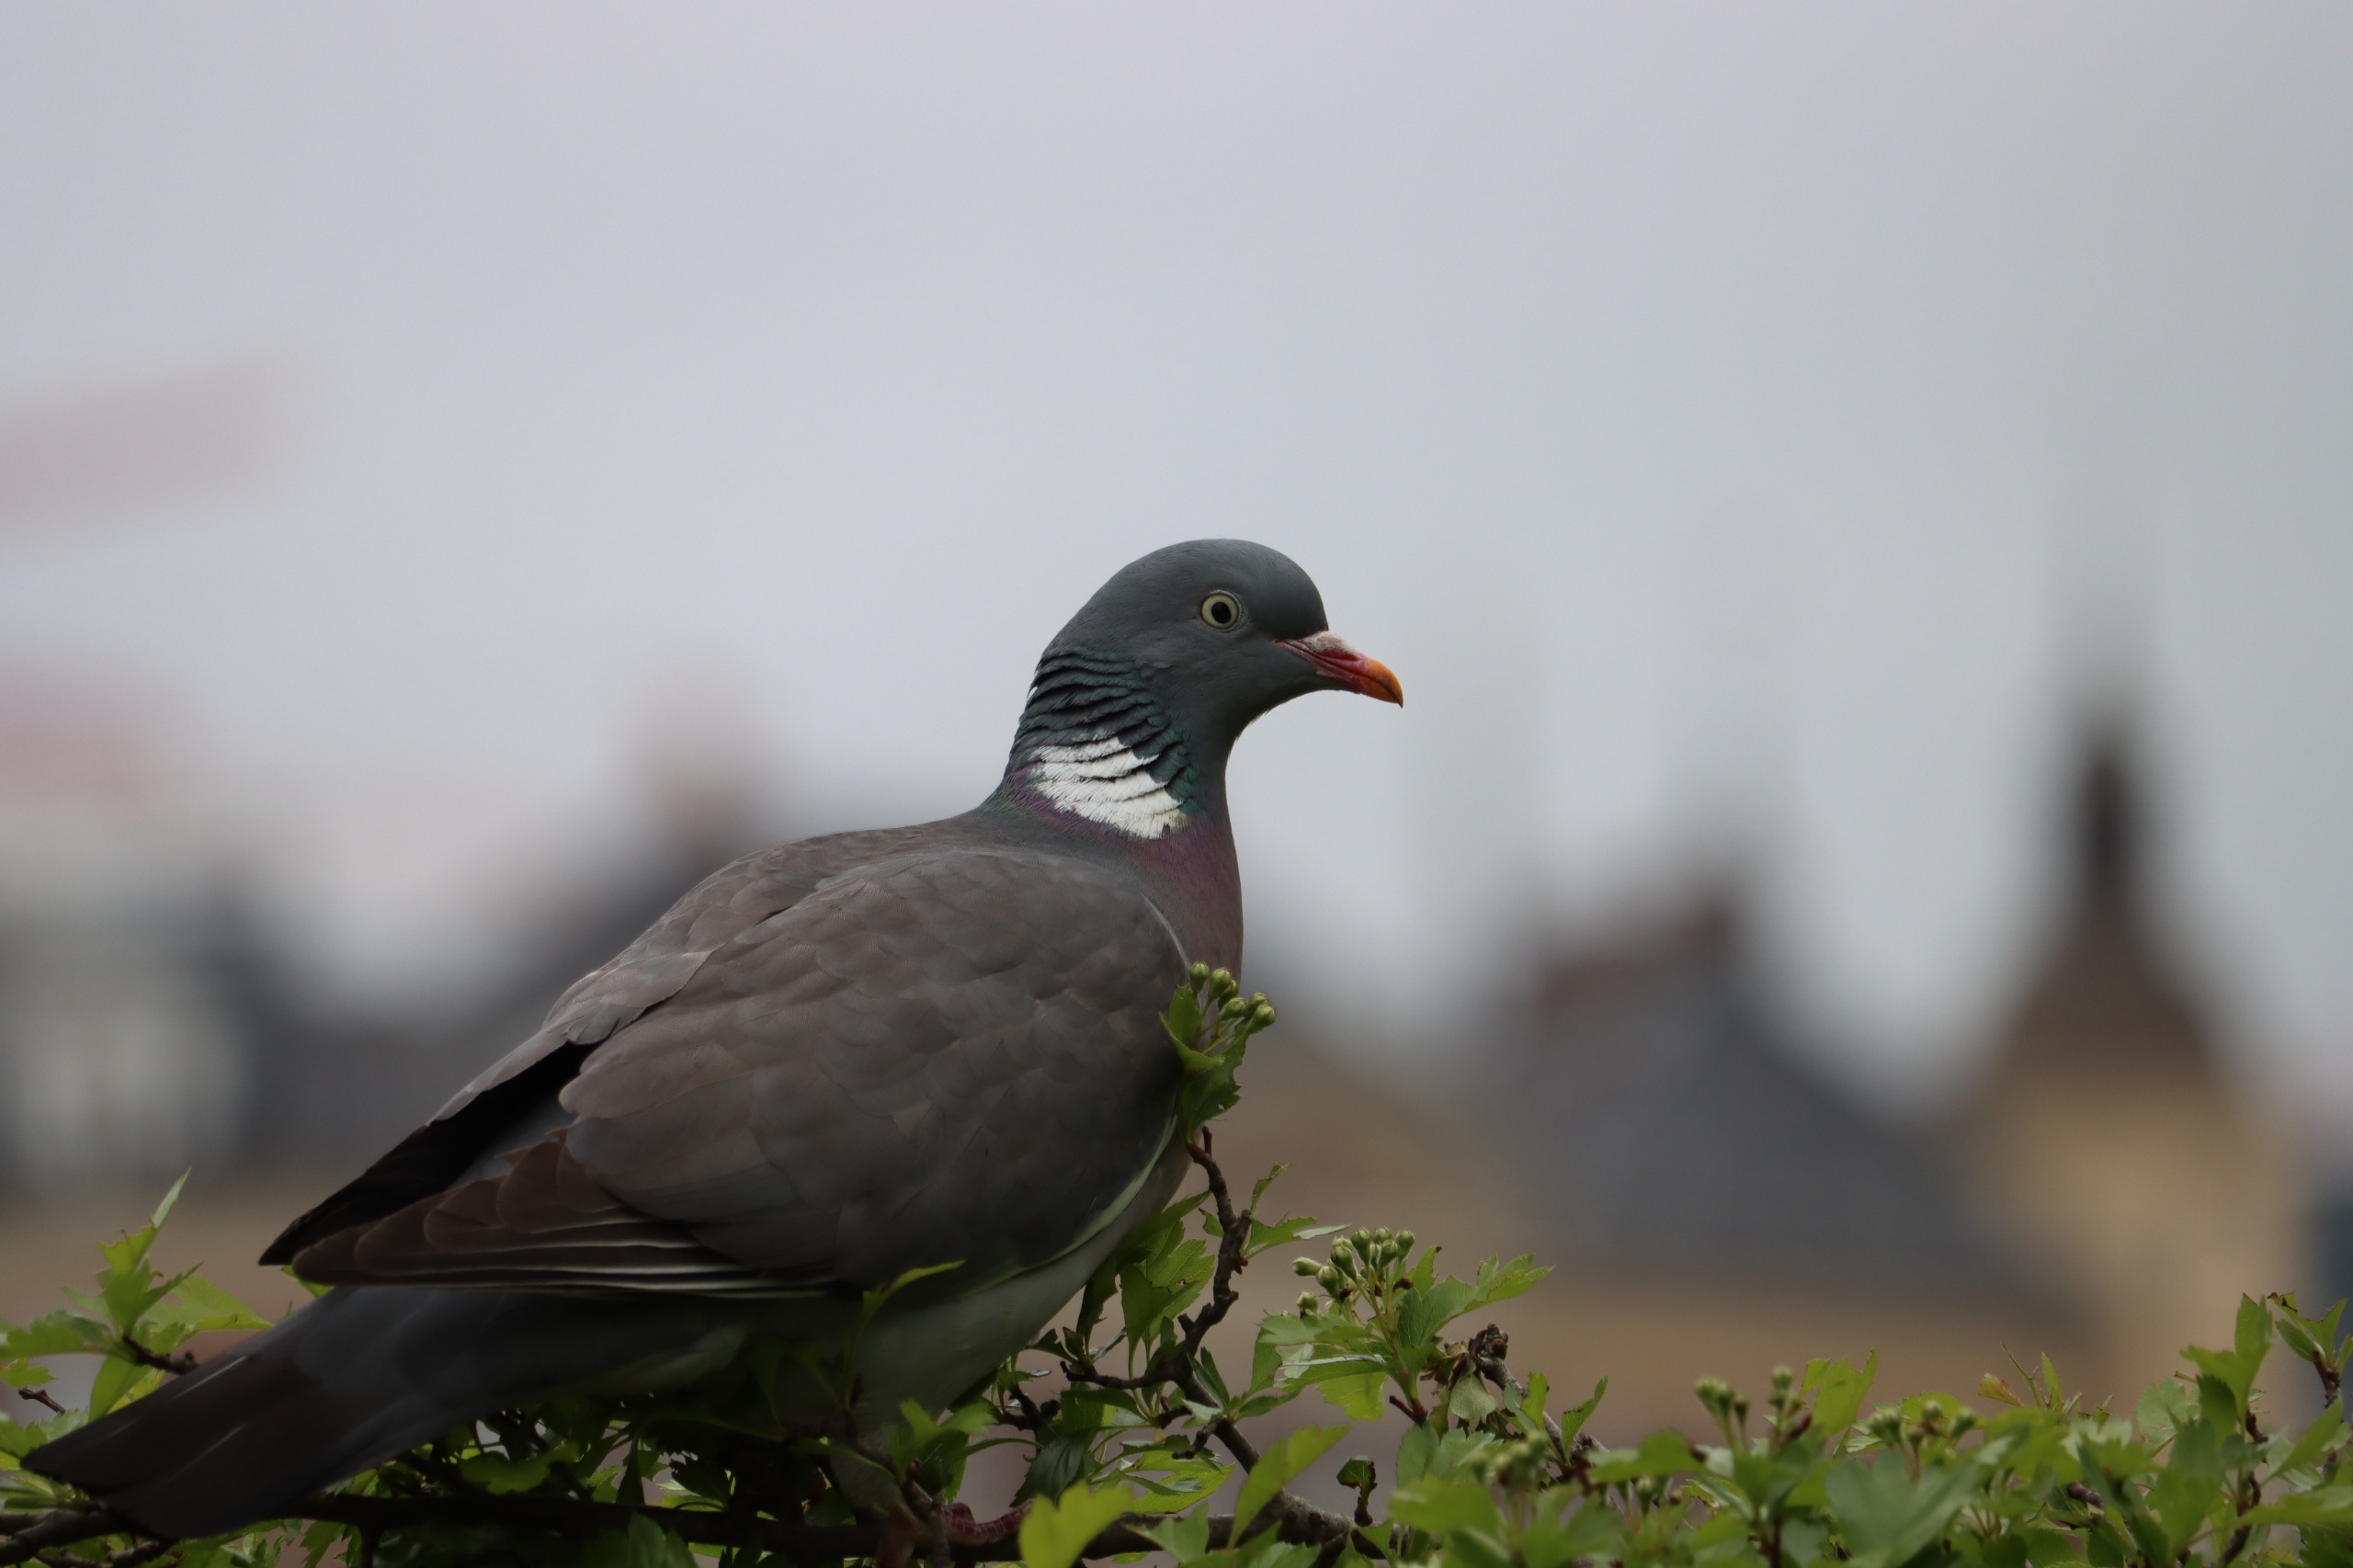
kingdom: Animalia
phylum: Chordata
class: Aves
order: Columbiformes
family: Columbidae
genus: Columba
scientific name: Columba palumbus
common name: Ringdue
